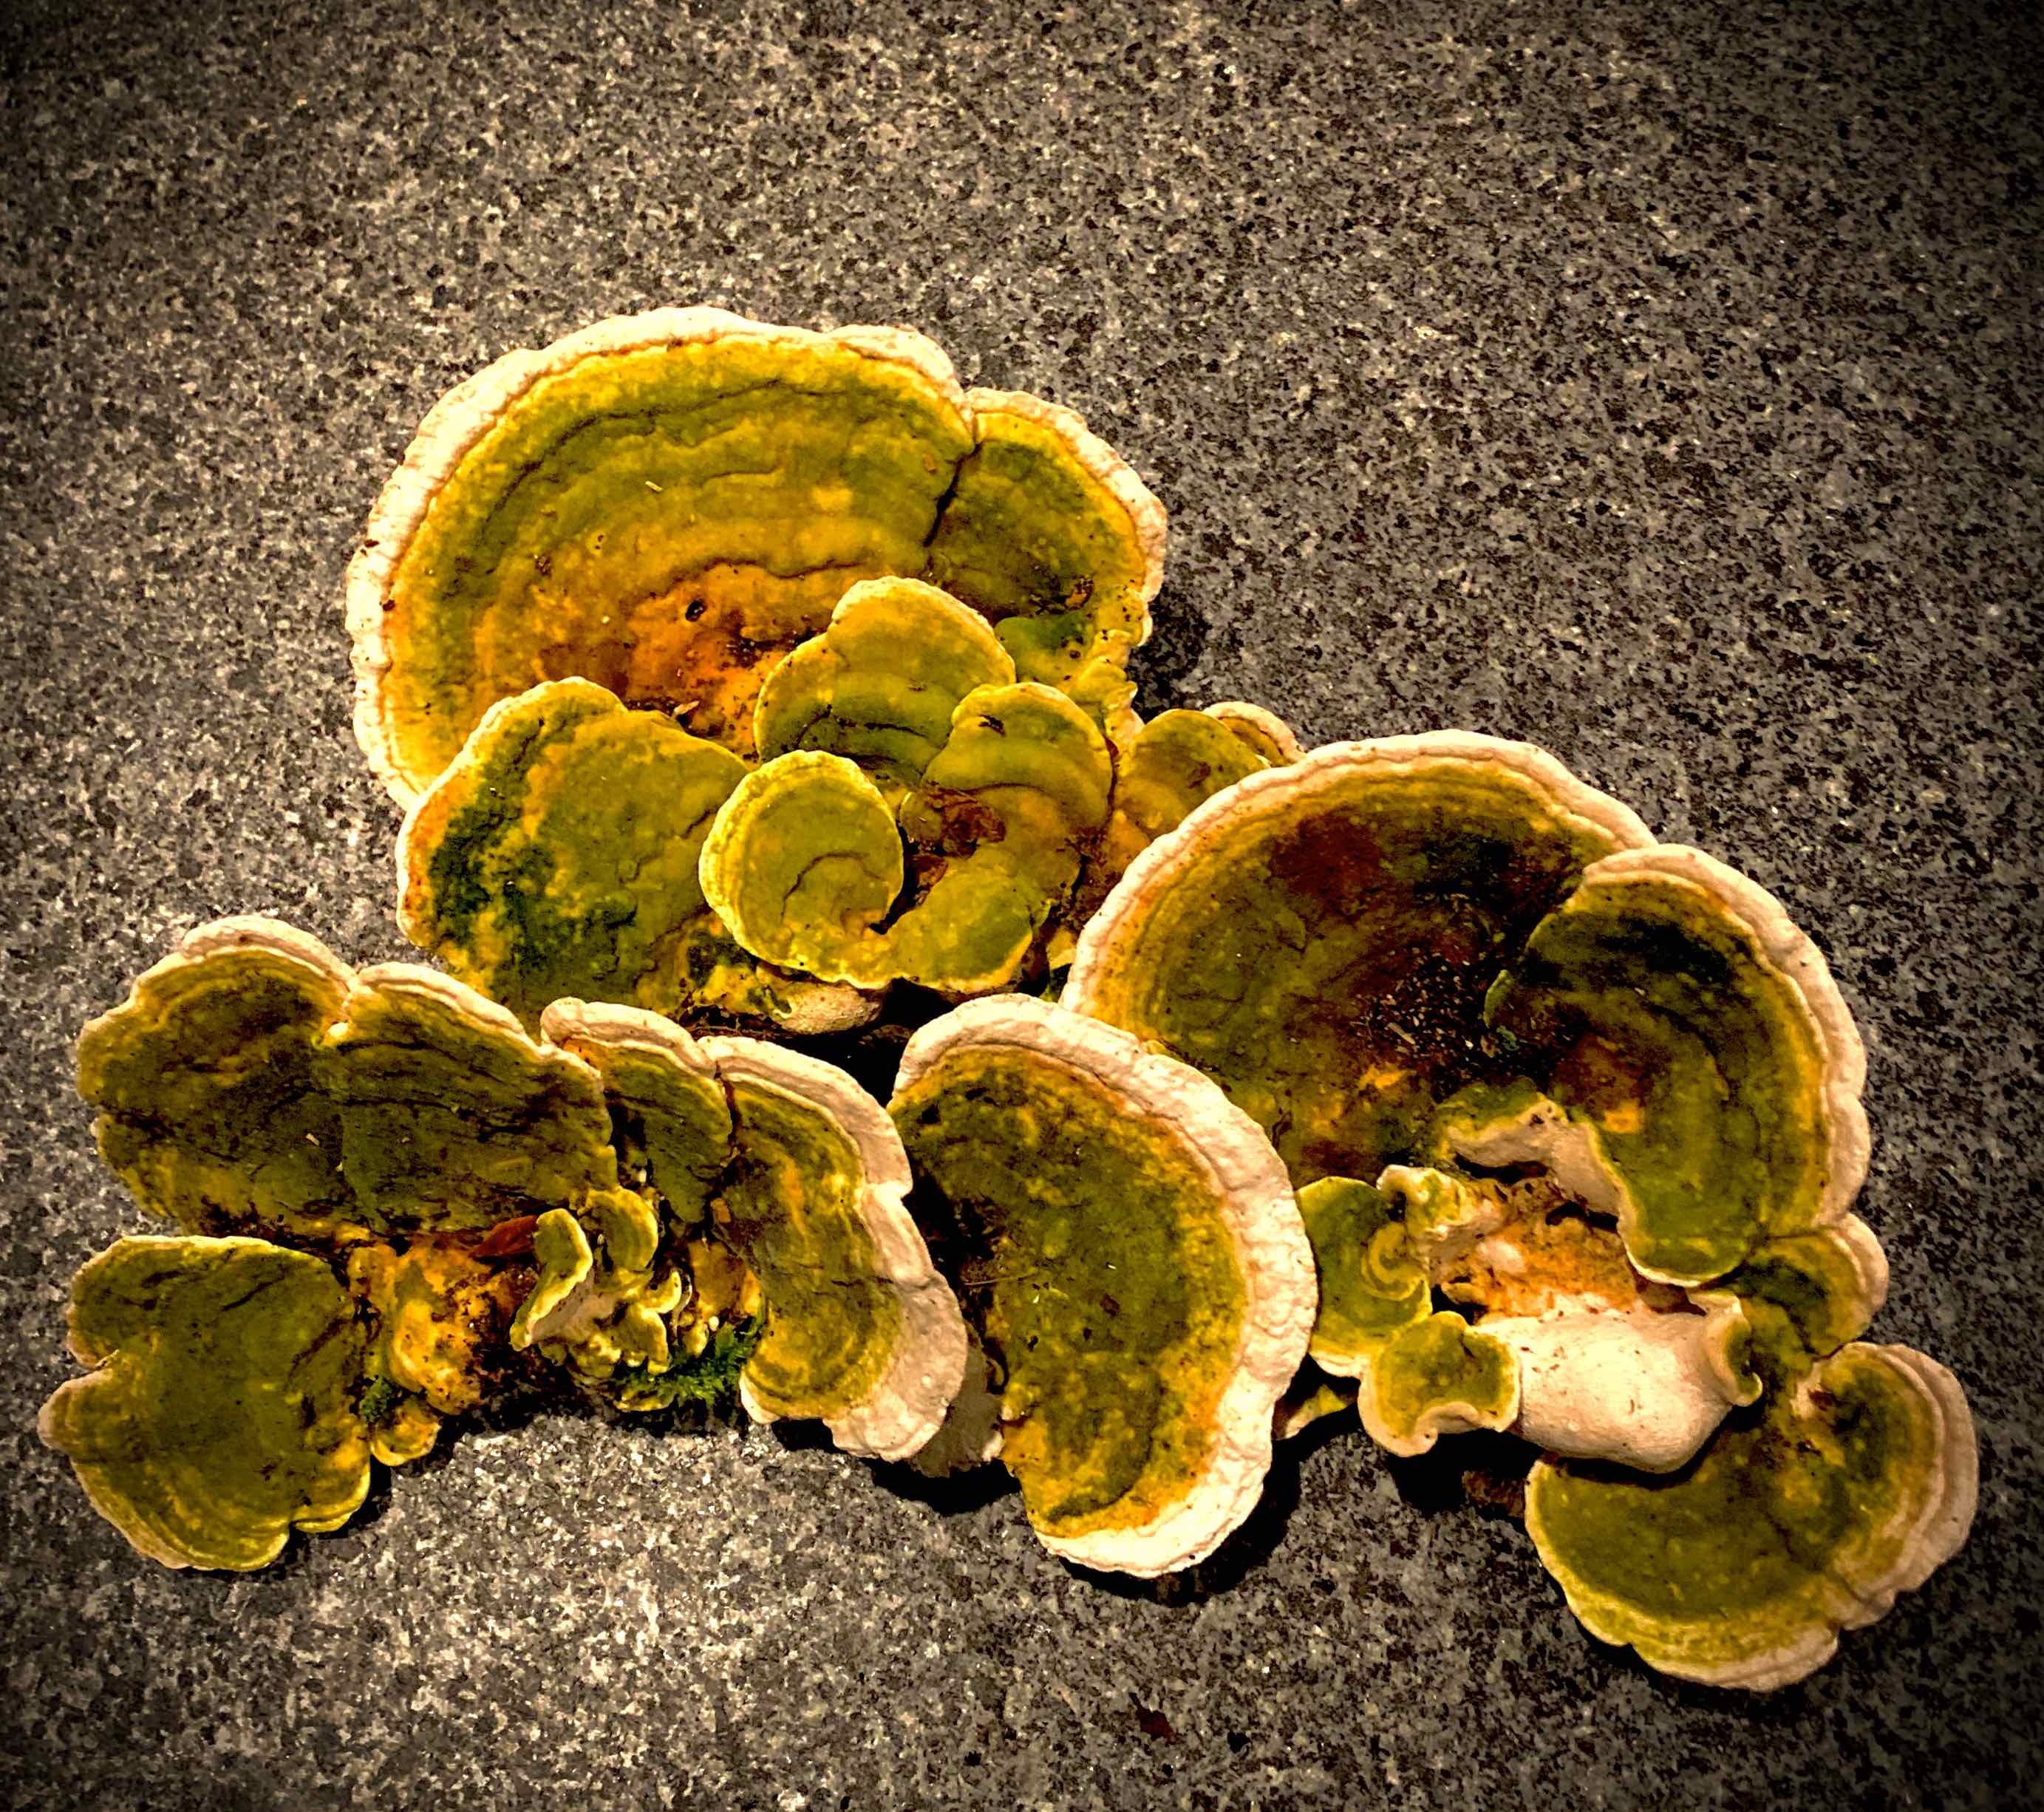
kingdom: Fungi
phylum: Basidiomycota
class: Agaricomycetes
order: Polyporales
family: Polyporaceae
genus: Trametes
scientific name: Trametes hirsuta
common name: håret læderporesvamp
